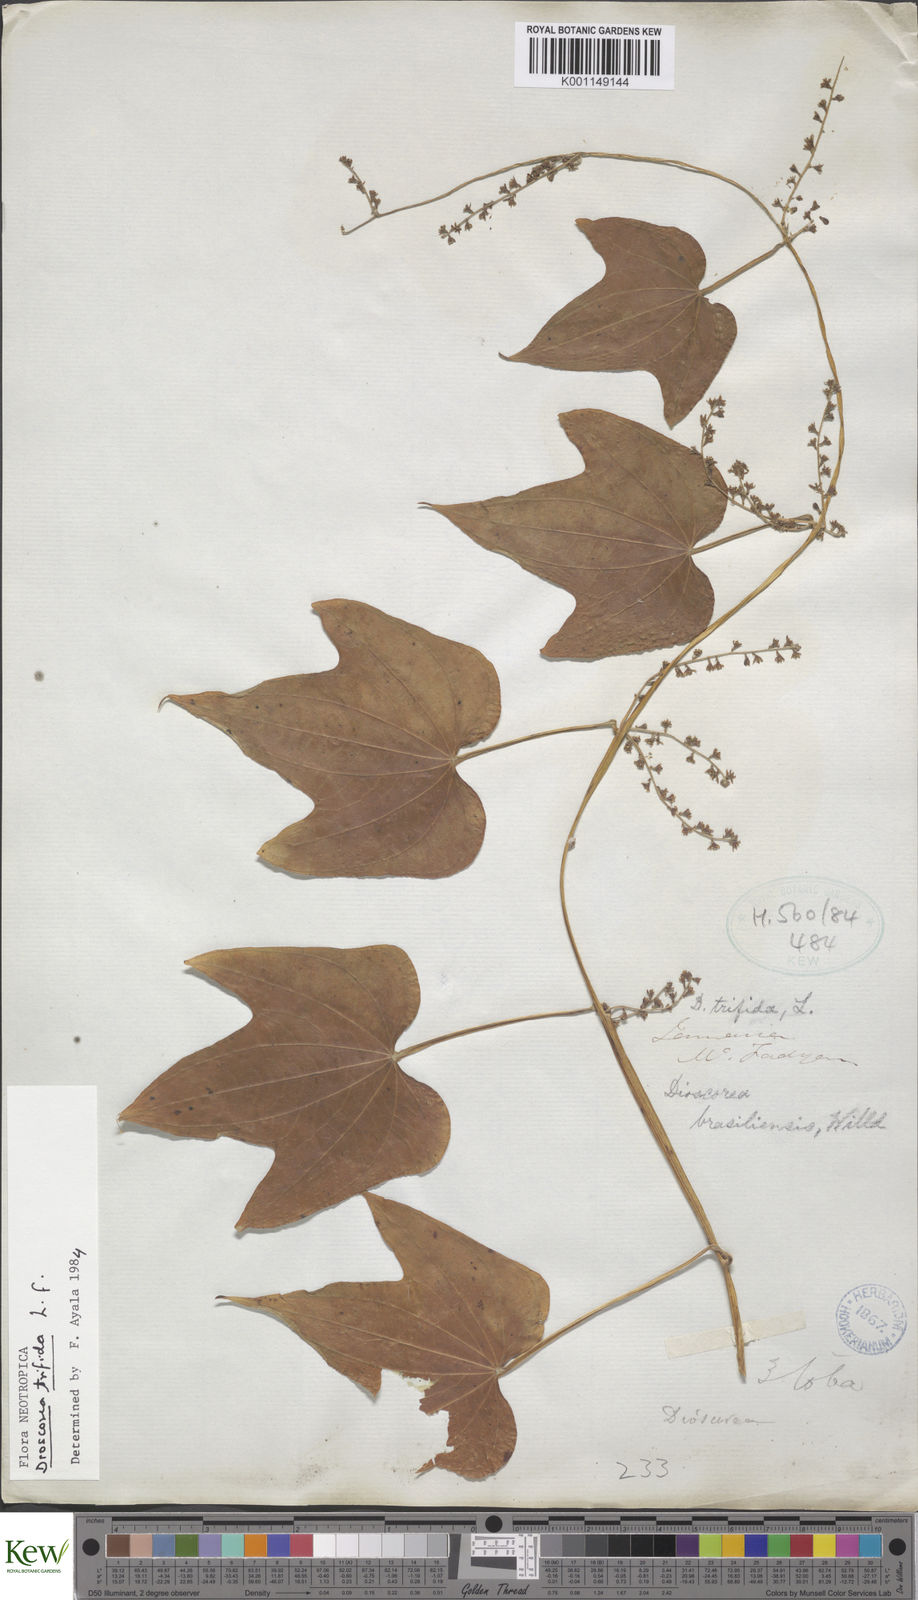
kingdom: Plantae
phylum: Tracheophyta
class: Liliopsida
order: Dioscoreales
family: Dioscoreaceae
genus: Dioscorea
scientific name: Dioscorea trifida
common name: Cush-cush
